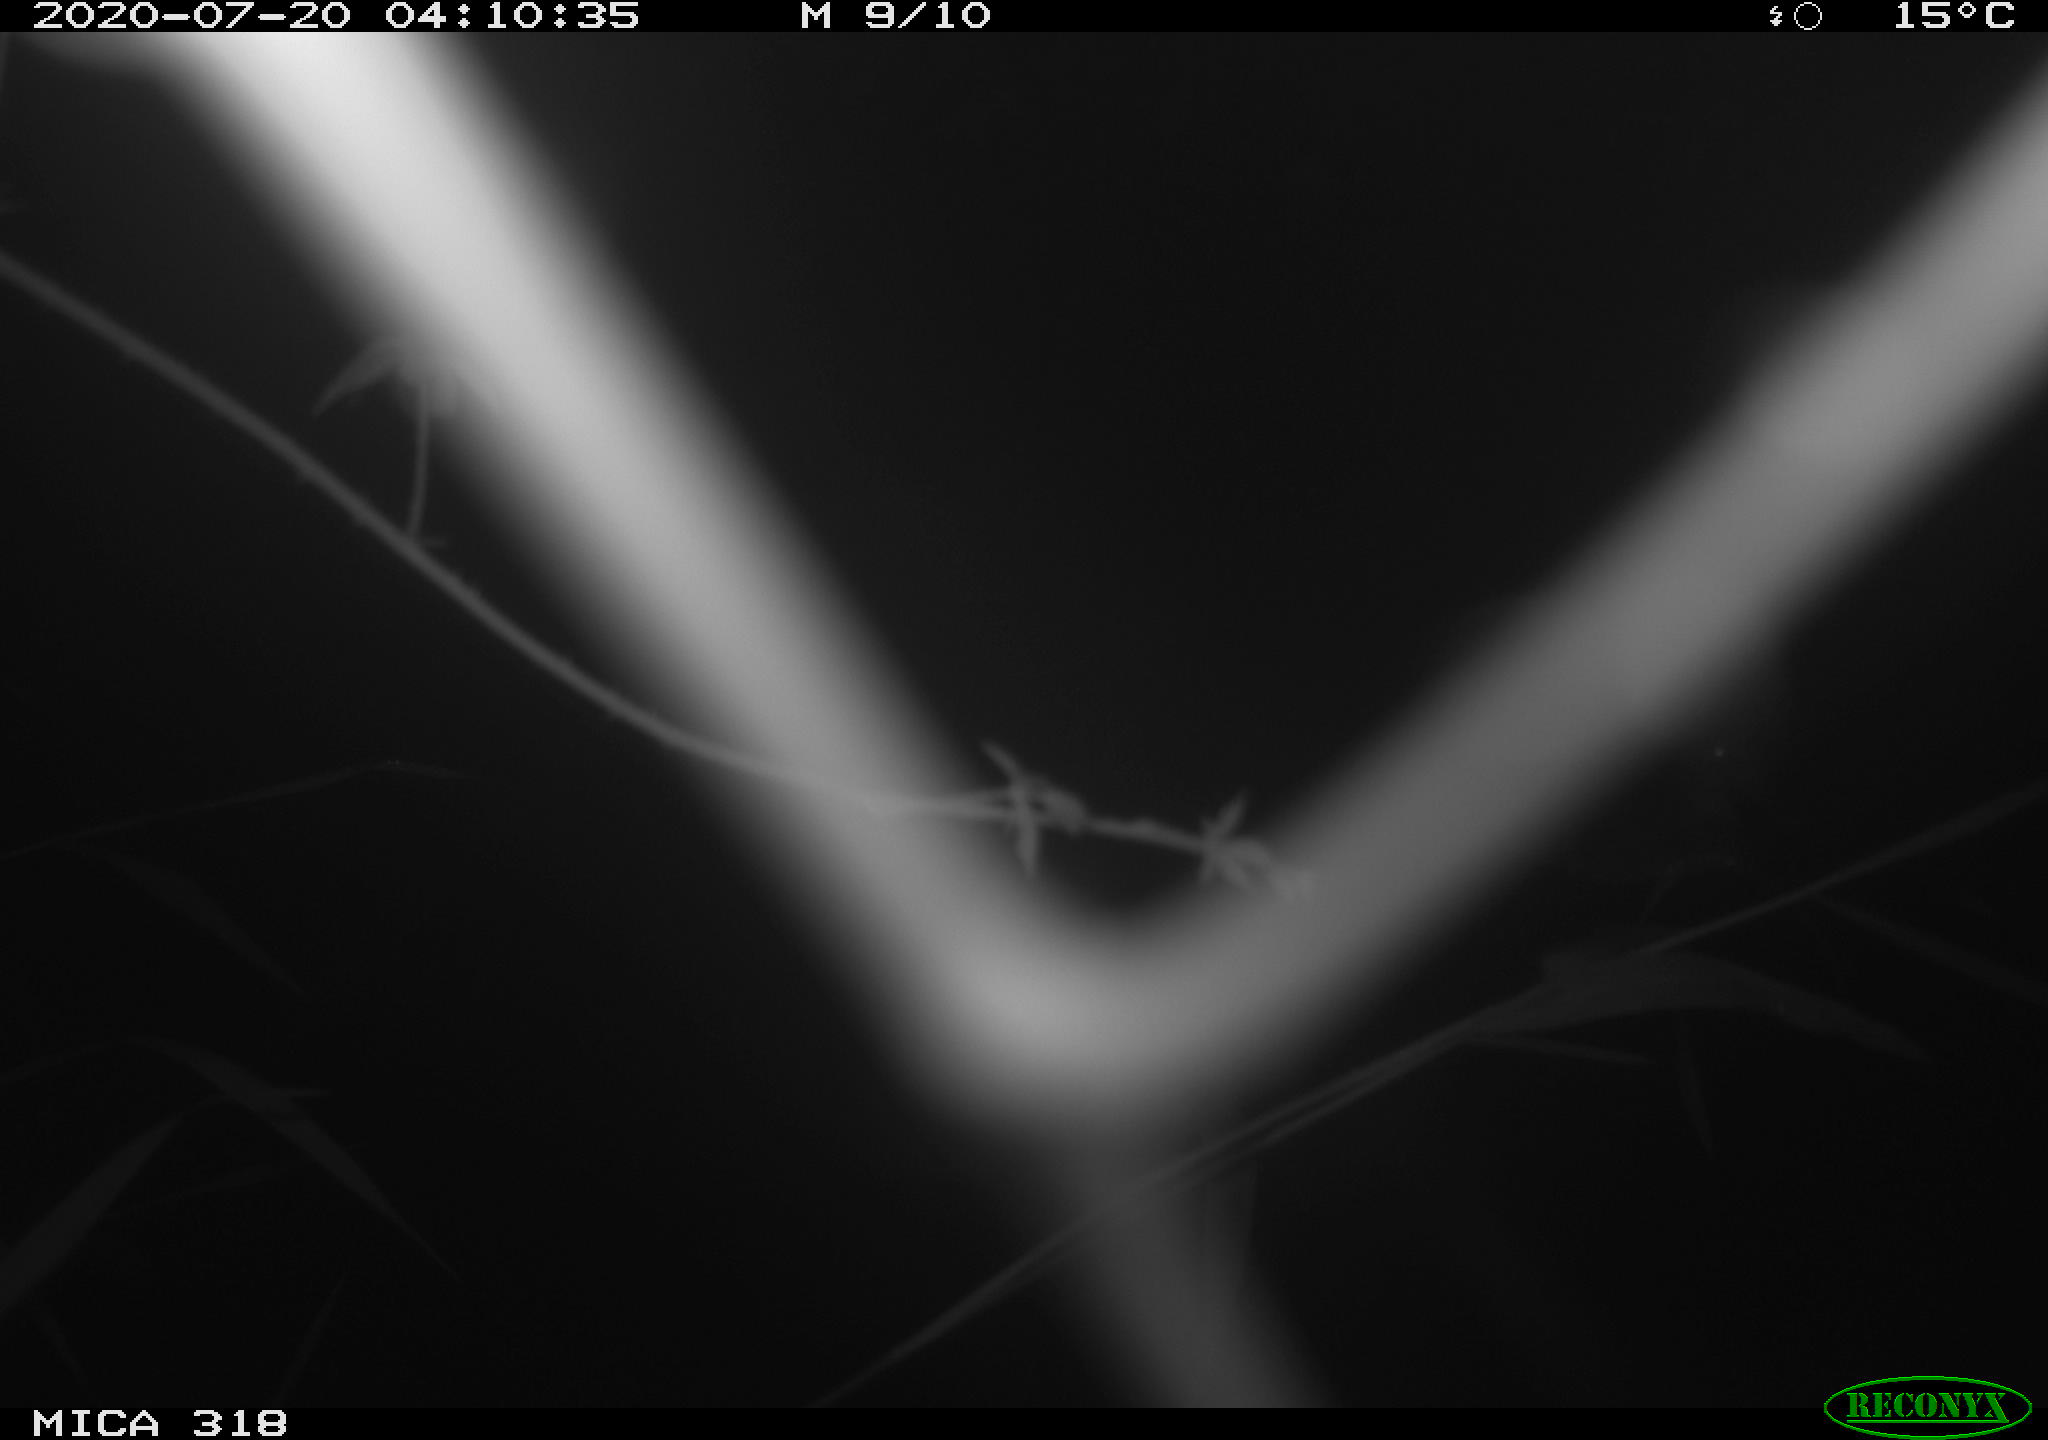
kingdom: Animalia
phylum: Chordata
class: Aves
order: Anseriformes
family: Anatidae
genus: Anas
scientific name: Anas platyrhynchos
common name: Mallard
